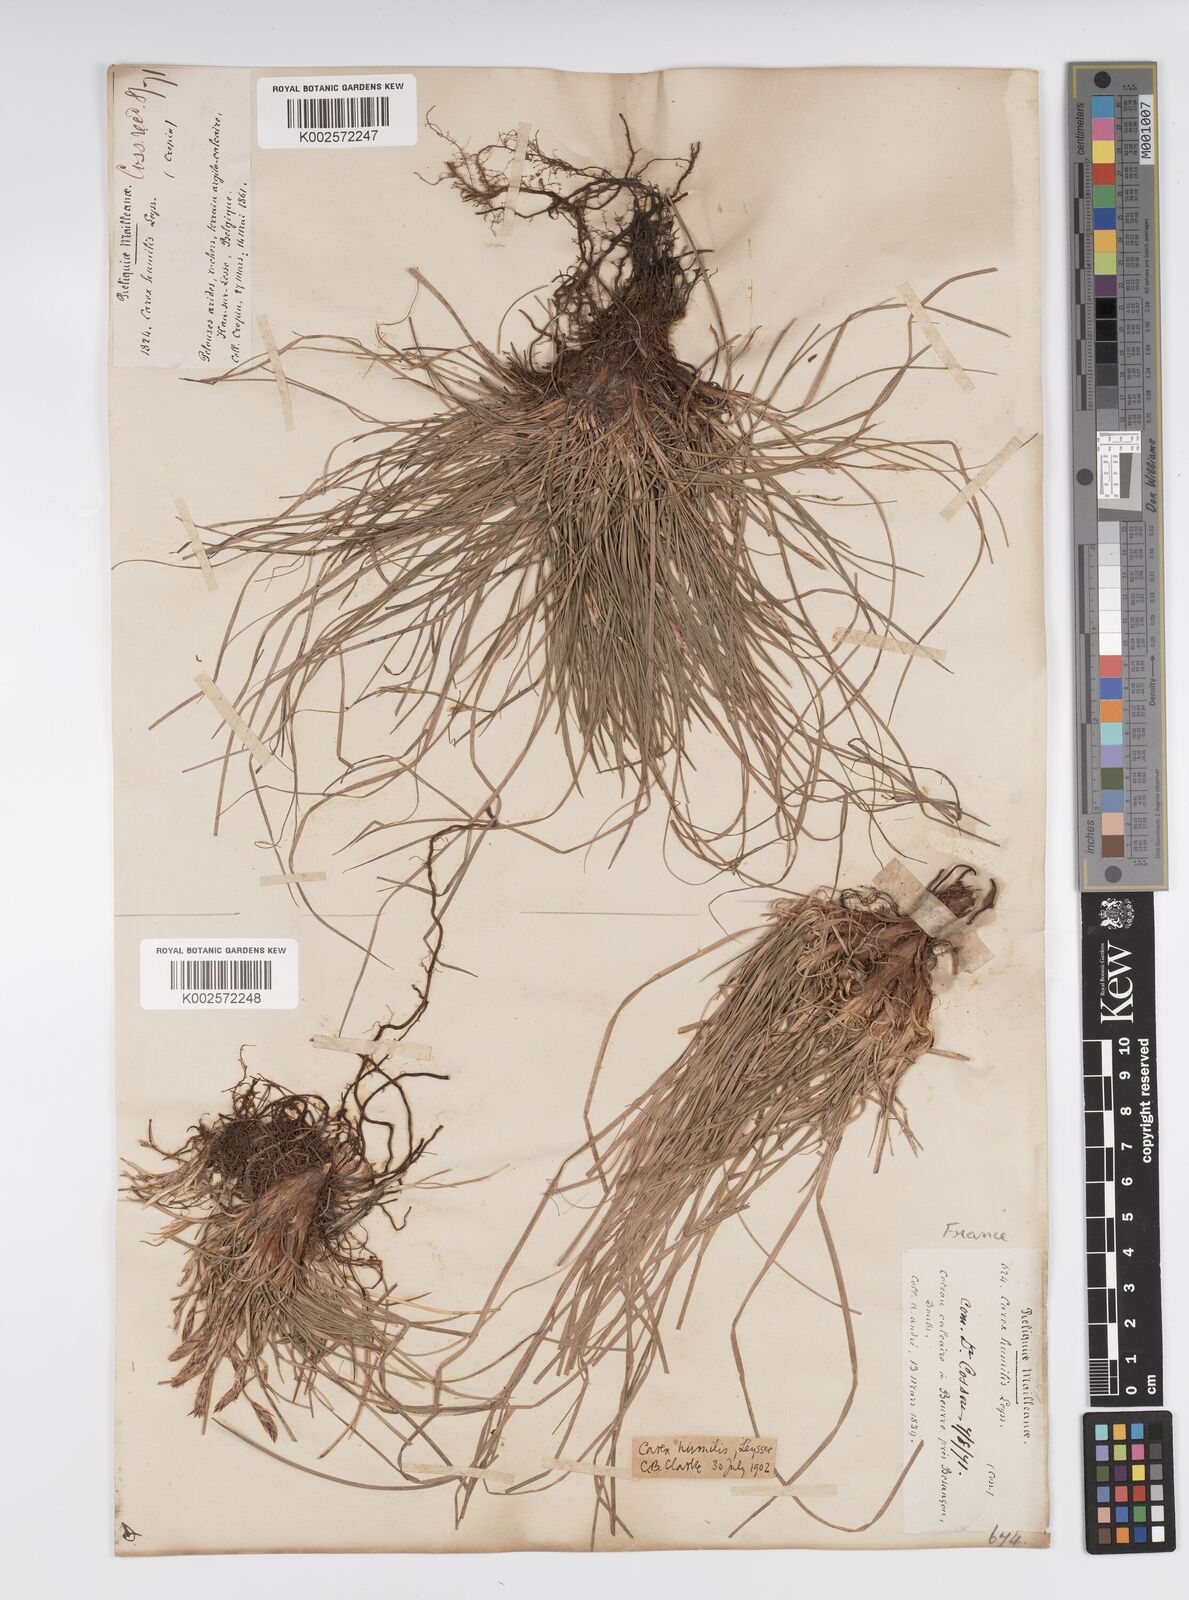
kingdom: Plantae
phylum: Tracheophyta
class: Liliopsida
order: Poales
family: Cyperaceae
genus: Carex
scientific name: Carex humilis
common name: Dwarf sedge
